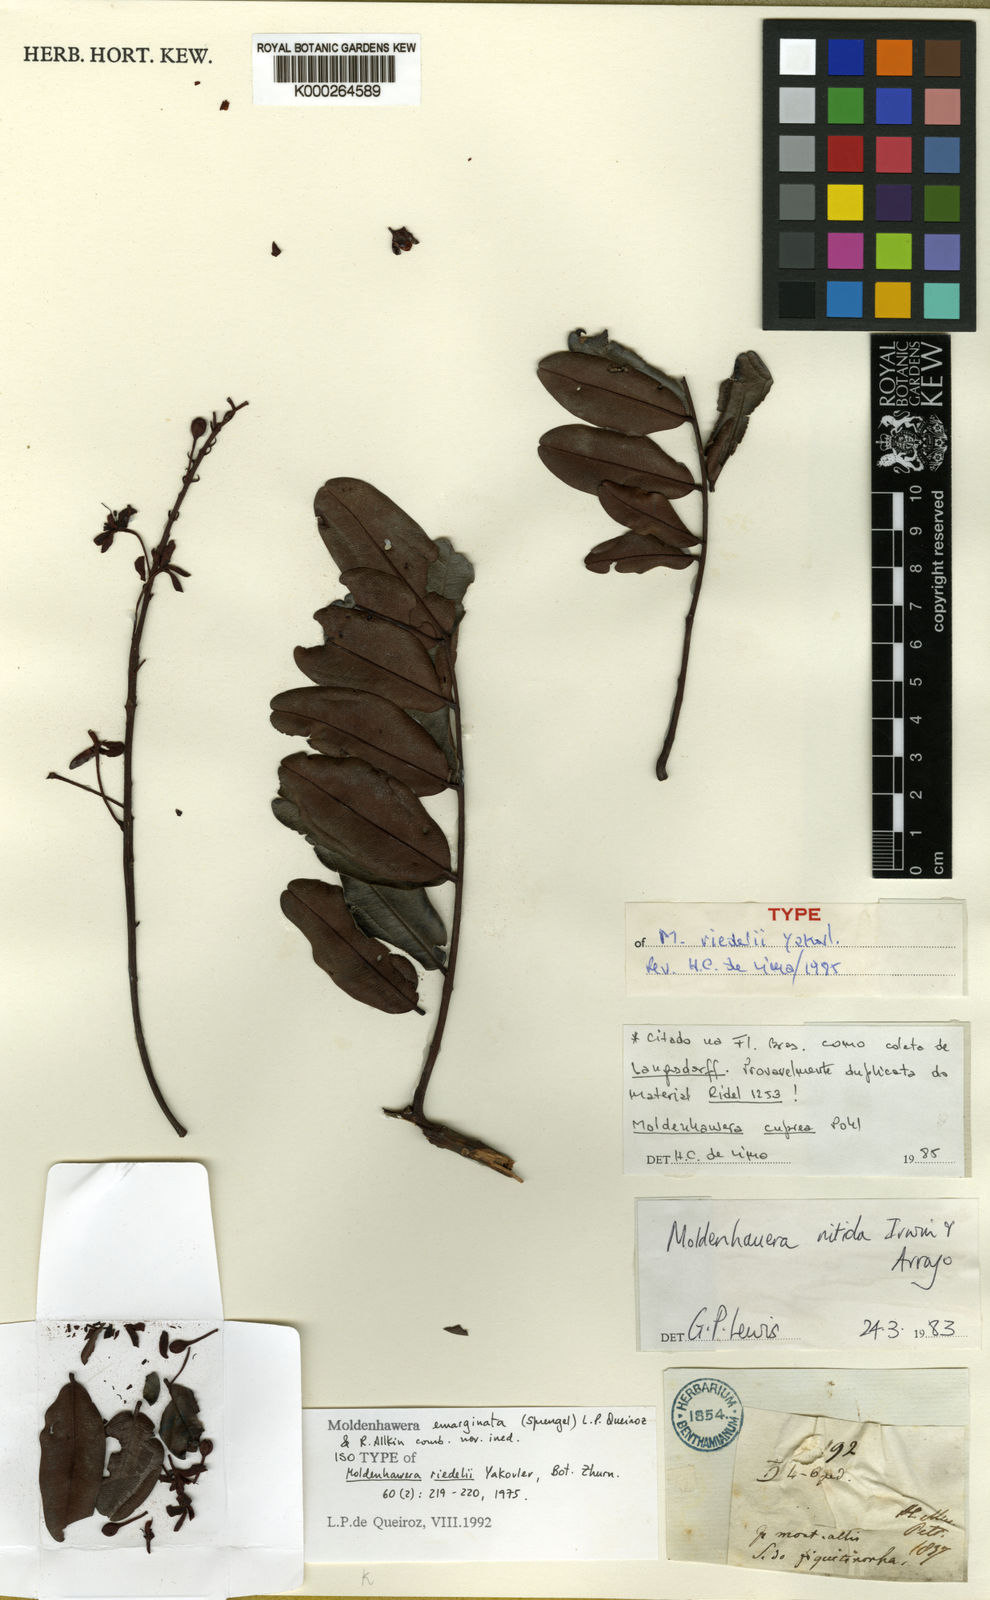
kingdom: Plantae
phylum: Tracheophyta
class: Magnoliopsida
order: Fabales
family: Fabaceae
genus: Moldenhawera
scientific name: Moldenhawera
